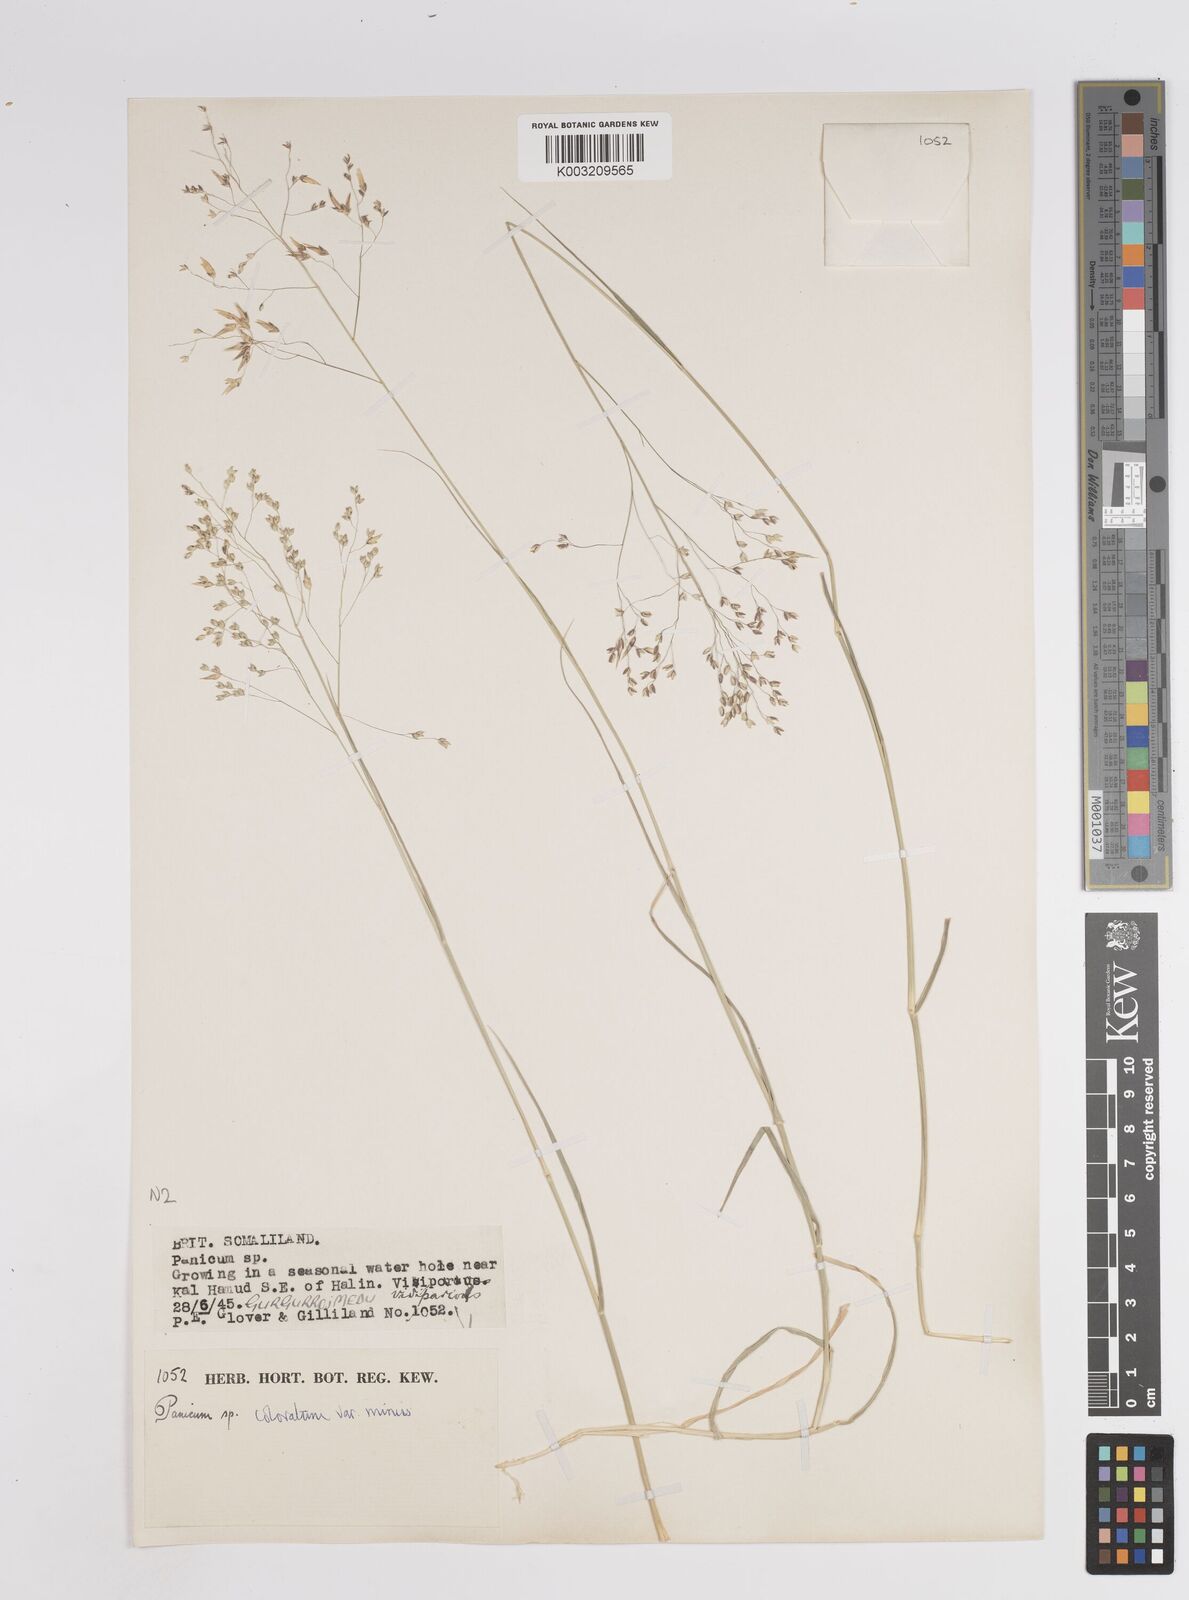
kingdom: Plantae
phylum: Tracheophyta
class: Liliopsida
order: Poales
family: Poaceae
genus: Panicum
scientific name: Panicum coloratum
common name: Kleingrass
